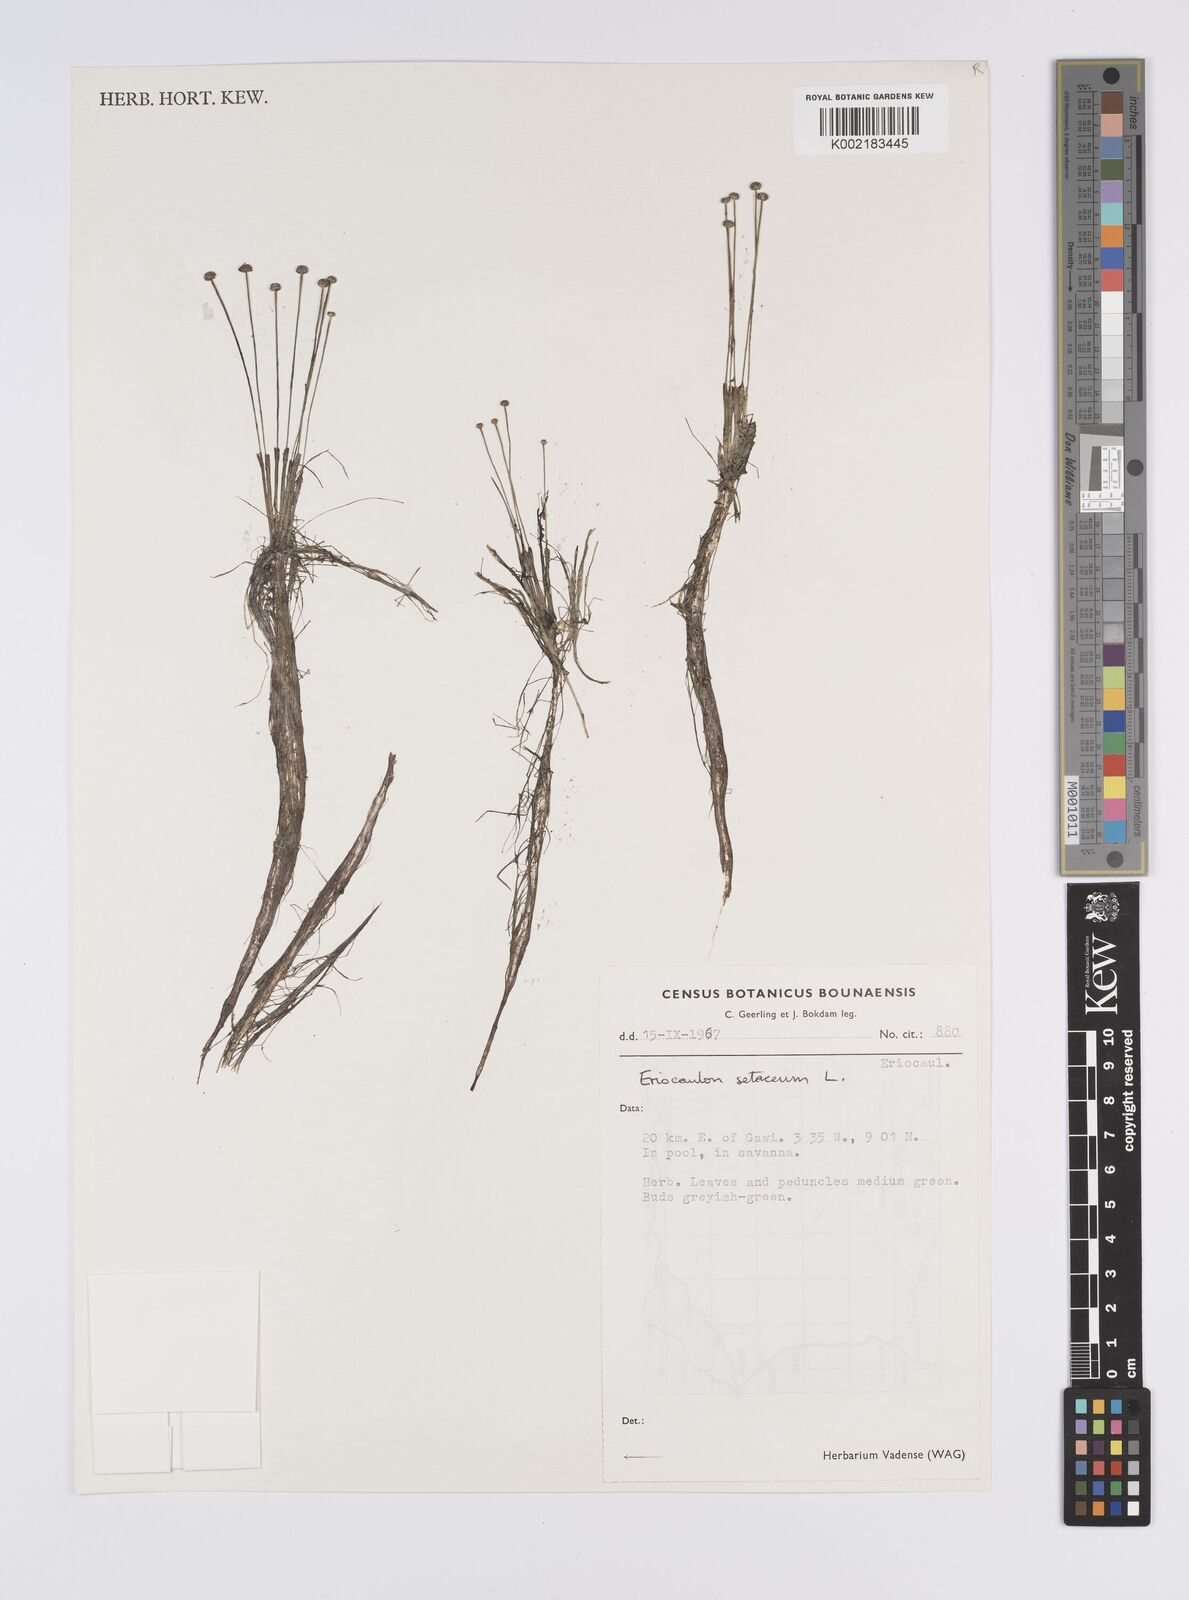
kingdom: Plantae
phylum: Tracheophyta
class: Liliopsida
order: Poales
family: Eriocaulaceae
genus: Eriocaulon
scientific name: Eriocaulon setaceum
